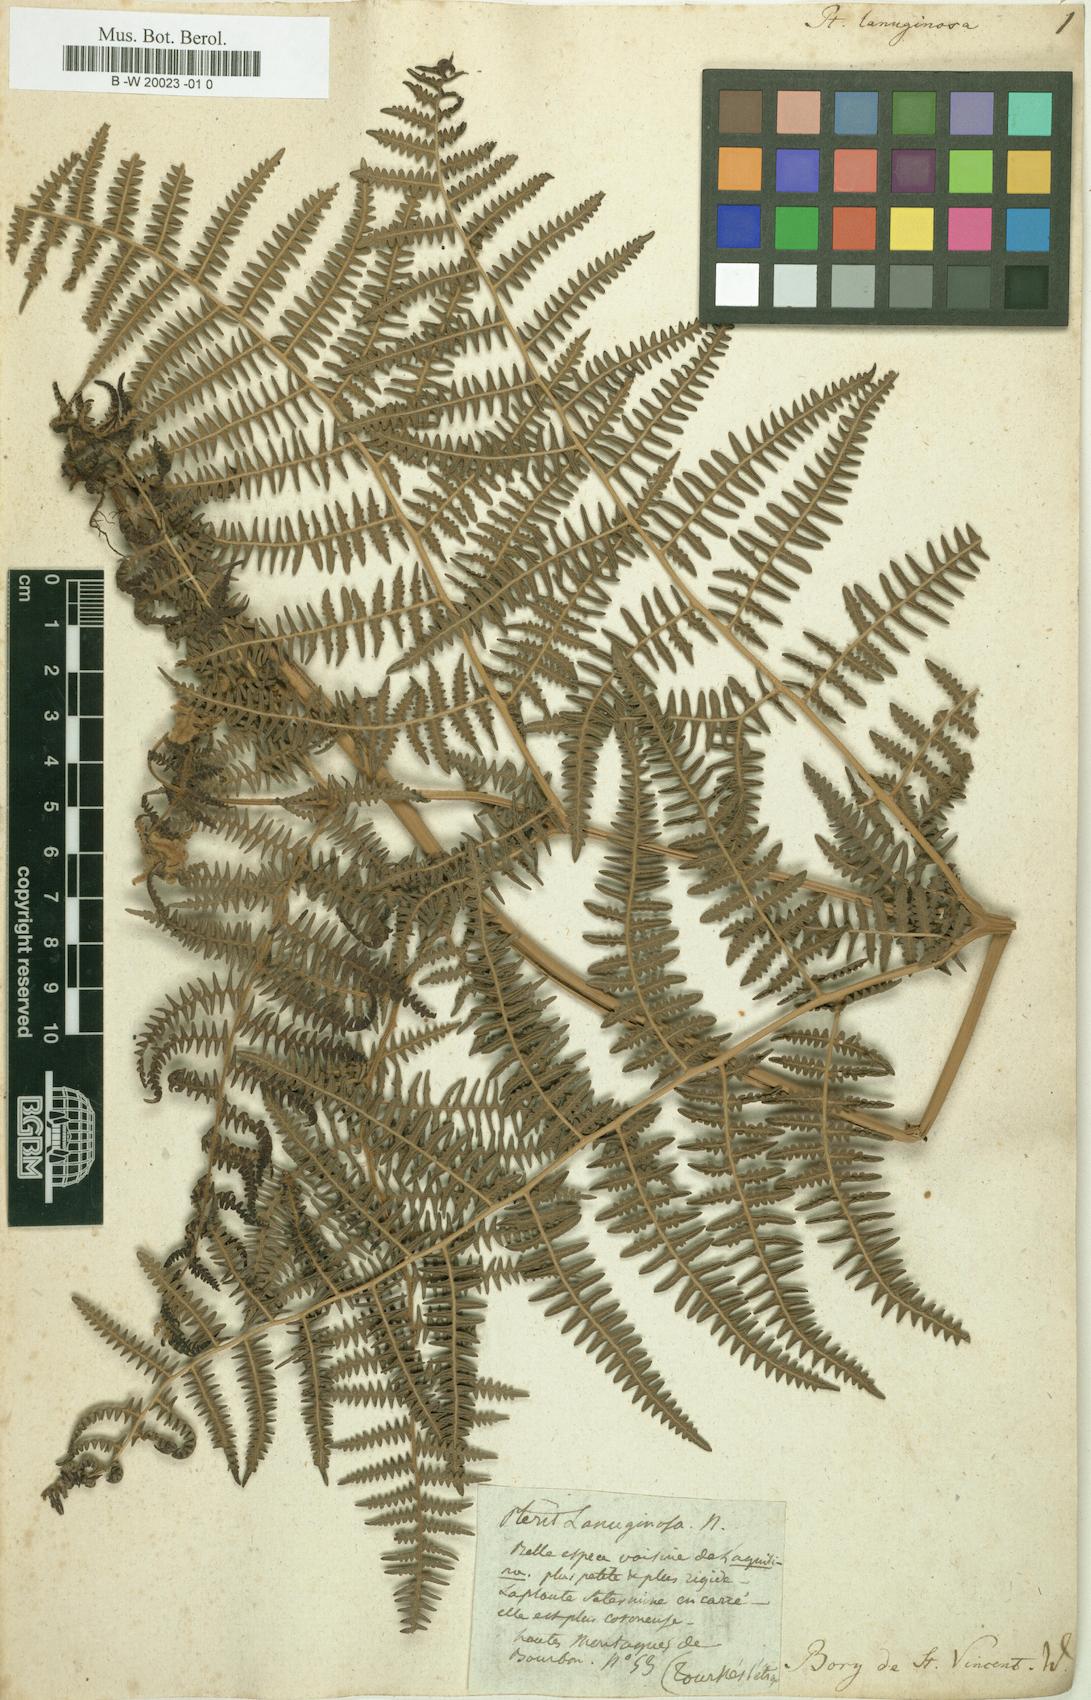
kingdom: Plantae
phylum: Tracheophyta
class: Polypodiopsida
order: Polypodiales
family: Dennstaedtiaceae
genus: Pteridium
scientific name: Pteridium aquilinum
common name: Bracken
